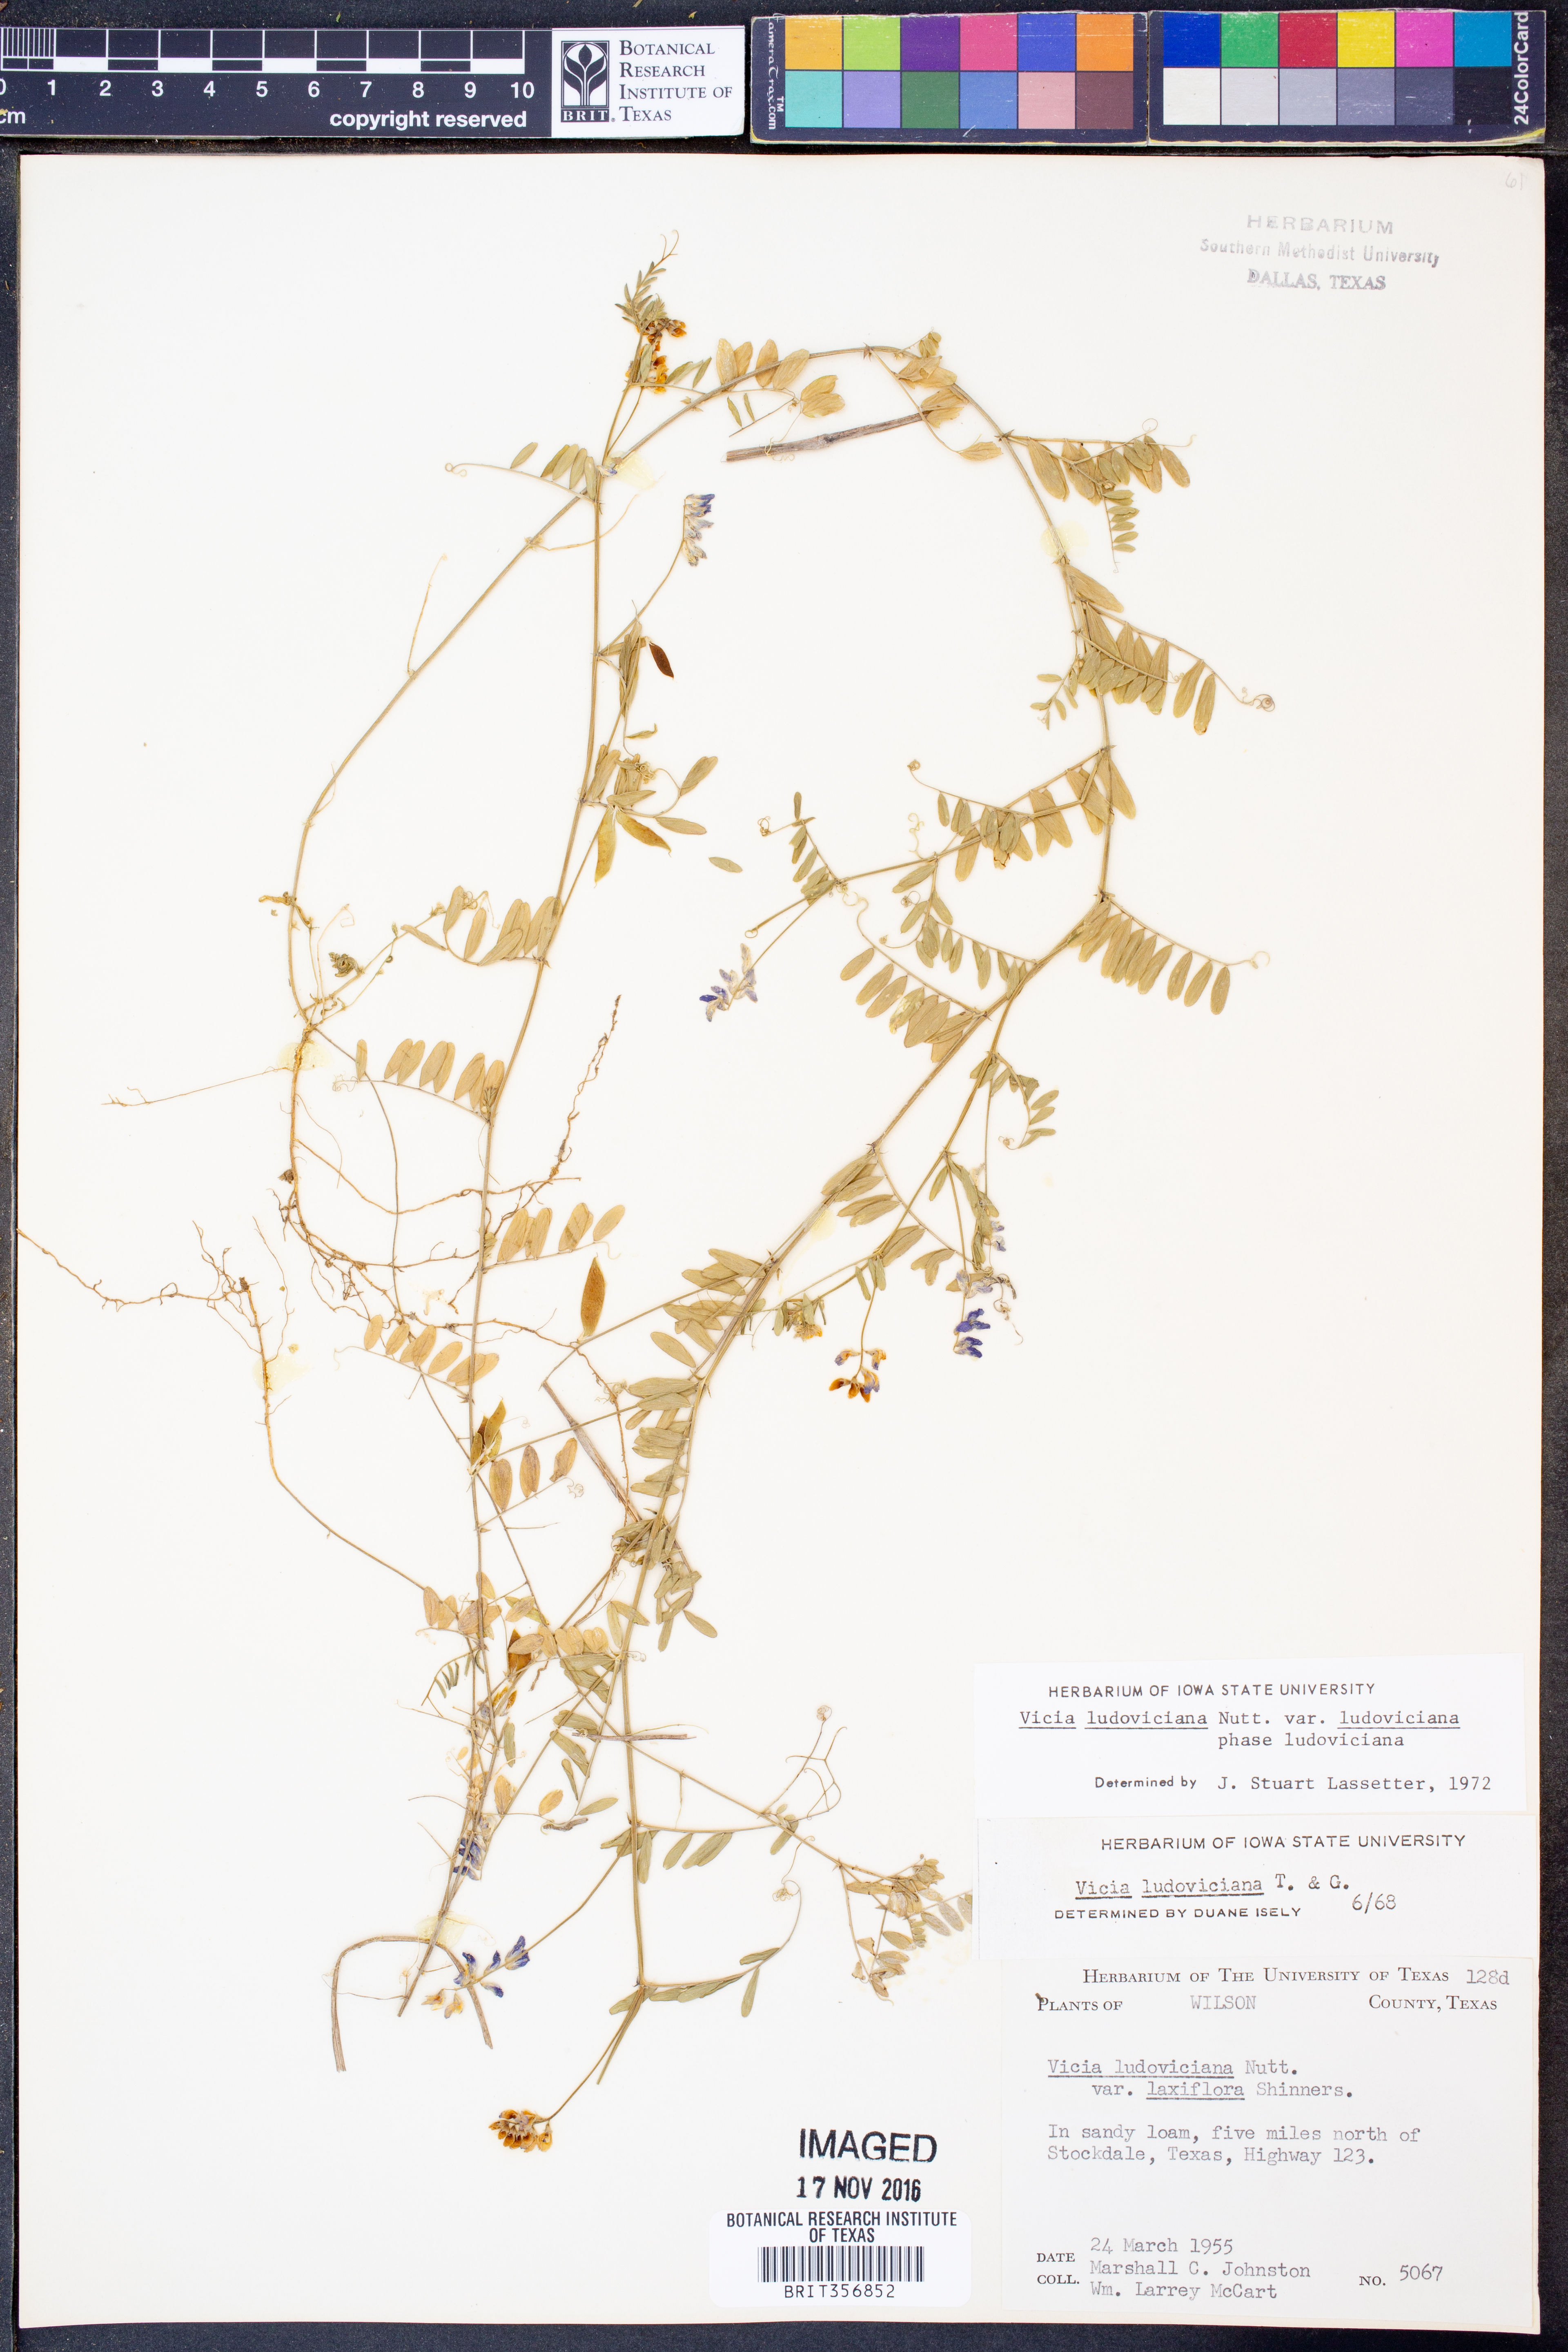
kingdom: Plantae
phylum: Tracheophyta
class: Magnoliopsida
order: Fabales
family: Fabaceae
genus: Vicia
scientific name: Vicia ludoviciana
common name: Louisiana vetch
